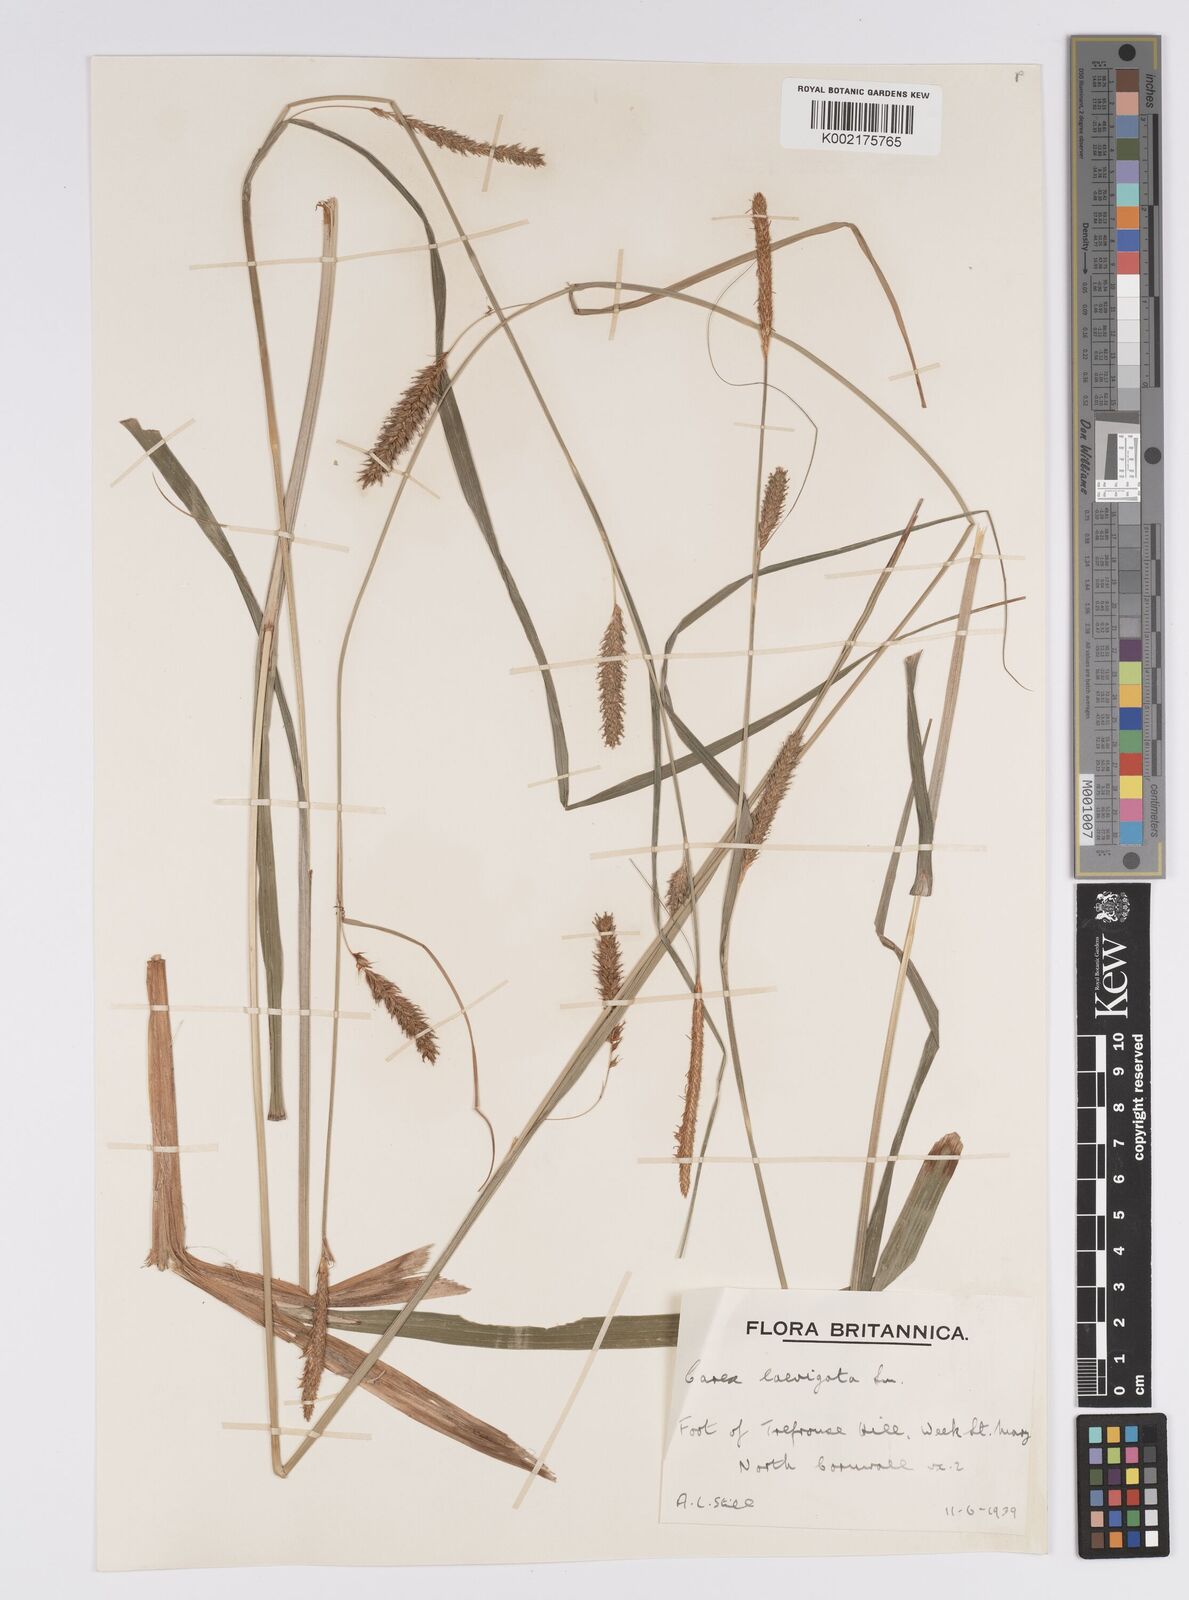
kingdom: Plantae
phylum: Tracheophyta
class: Liliopsida
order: Poales
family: Cyperaceae
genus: Carex
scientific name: Carex laevigata
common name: Smooth-stalked sedge
